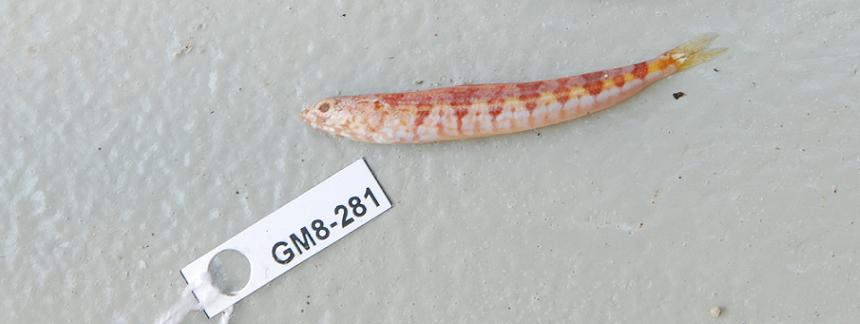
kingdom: Animalia
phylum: Chordata
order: Aulopiformes
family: Synodontidae
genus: Synodus
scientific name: Synodus
